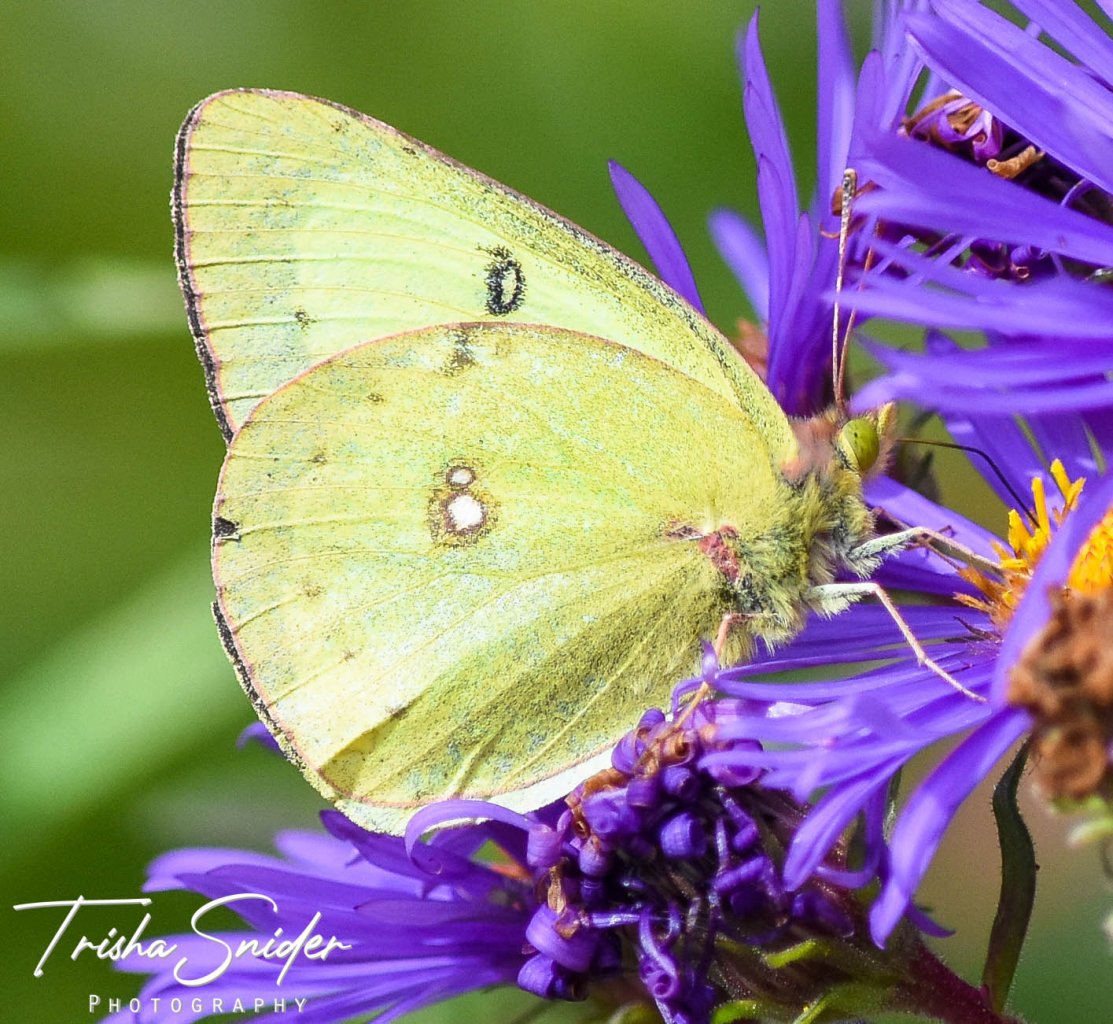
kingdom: Animalia
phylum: Arthropoda
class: Insecta
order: Lepidoptera
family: Pieridae
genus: Colias
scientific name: Colias philodice
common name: Clouded Sulphur
